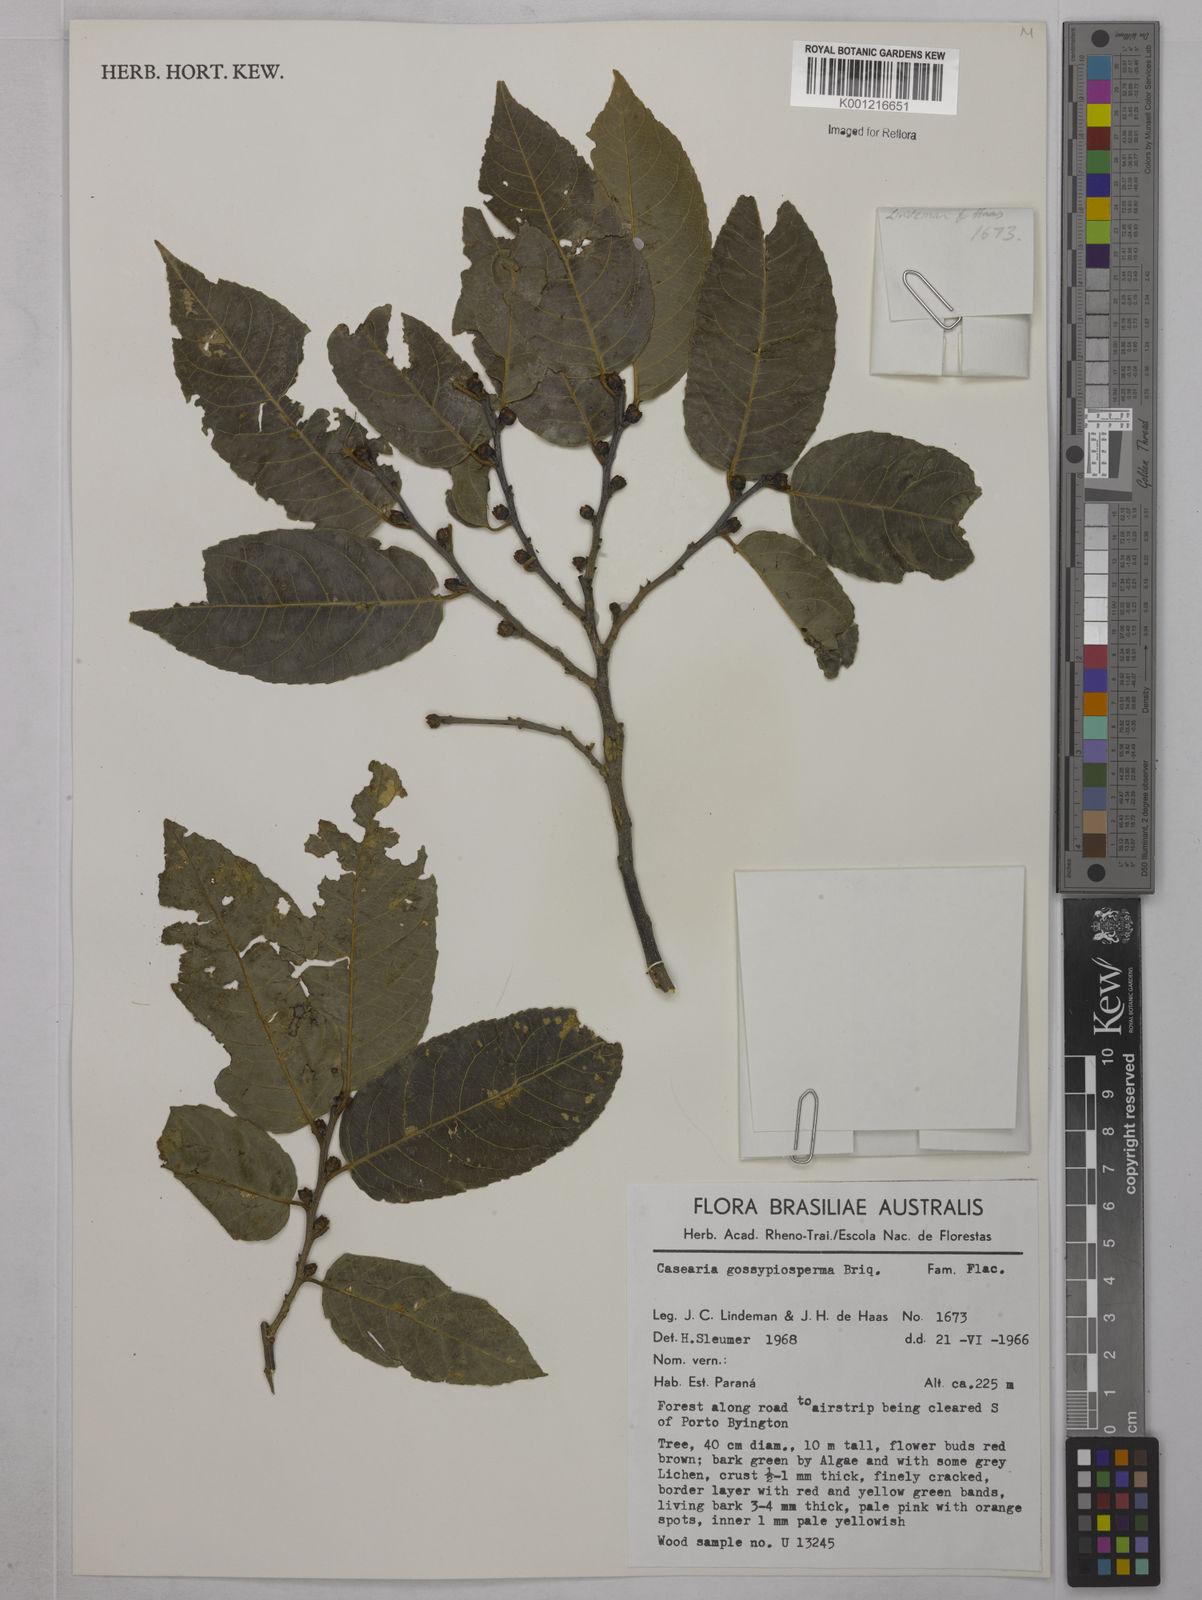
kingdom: Plantae
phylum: Tracheophyta
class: Magnoliopsida
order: Malpighiales
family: Salicaceae
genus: Casearia
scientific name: Casearia gossypiosperma
